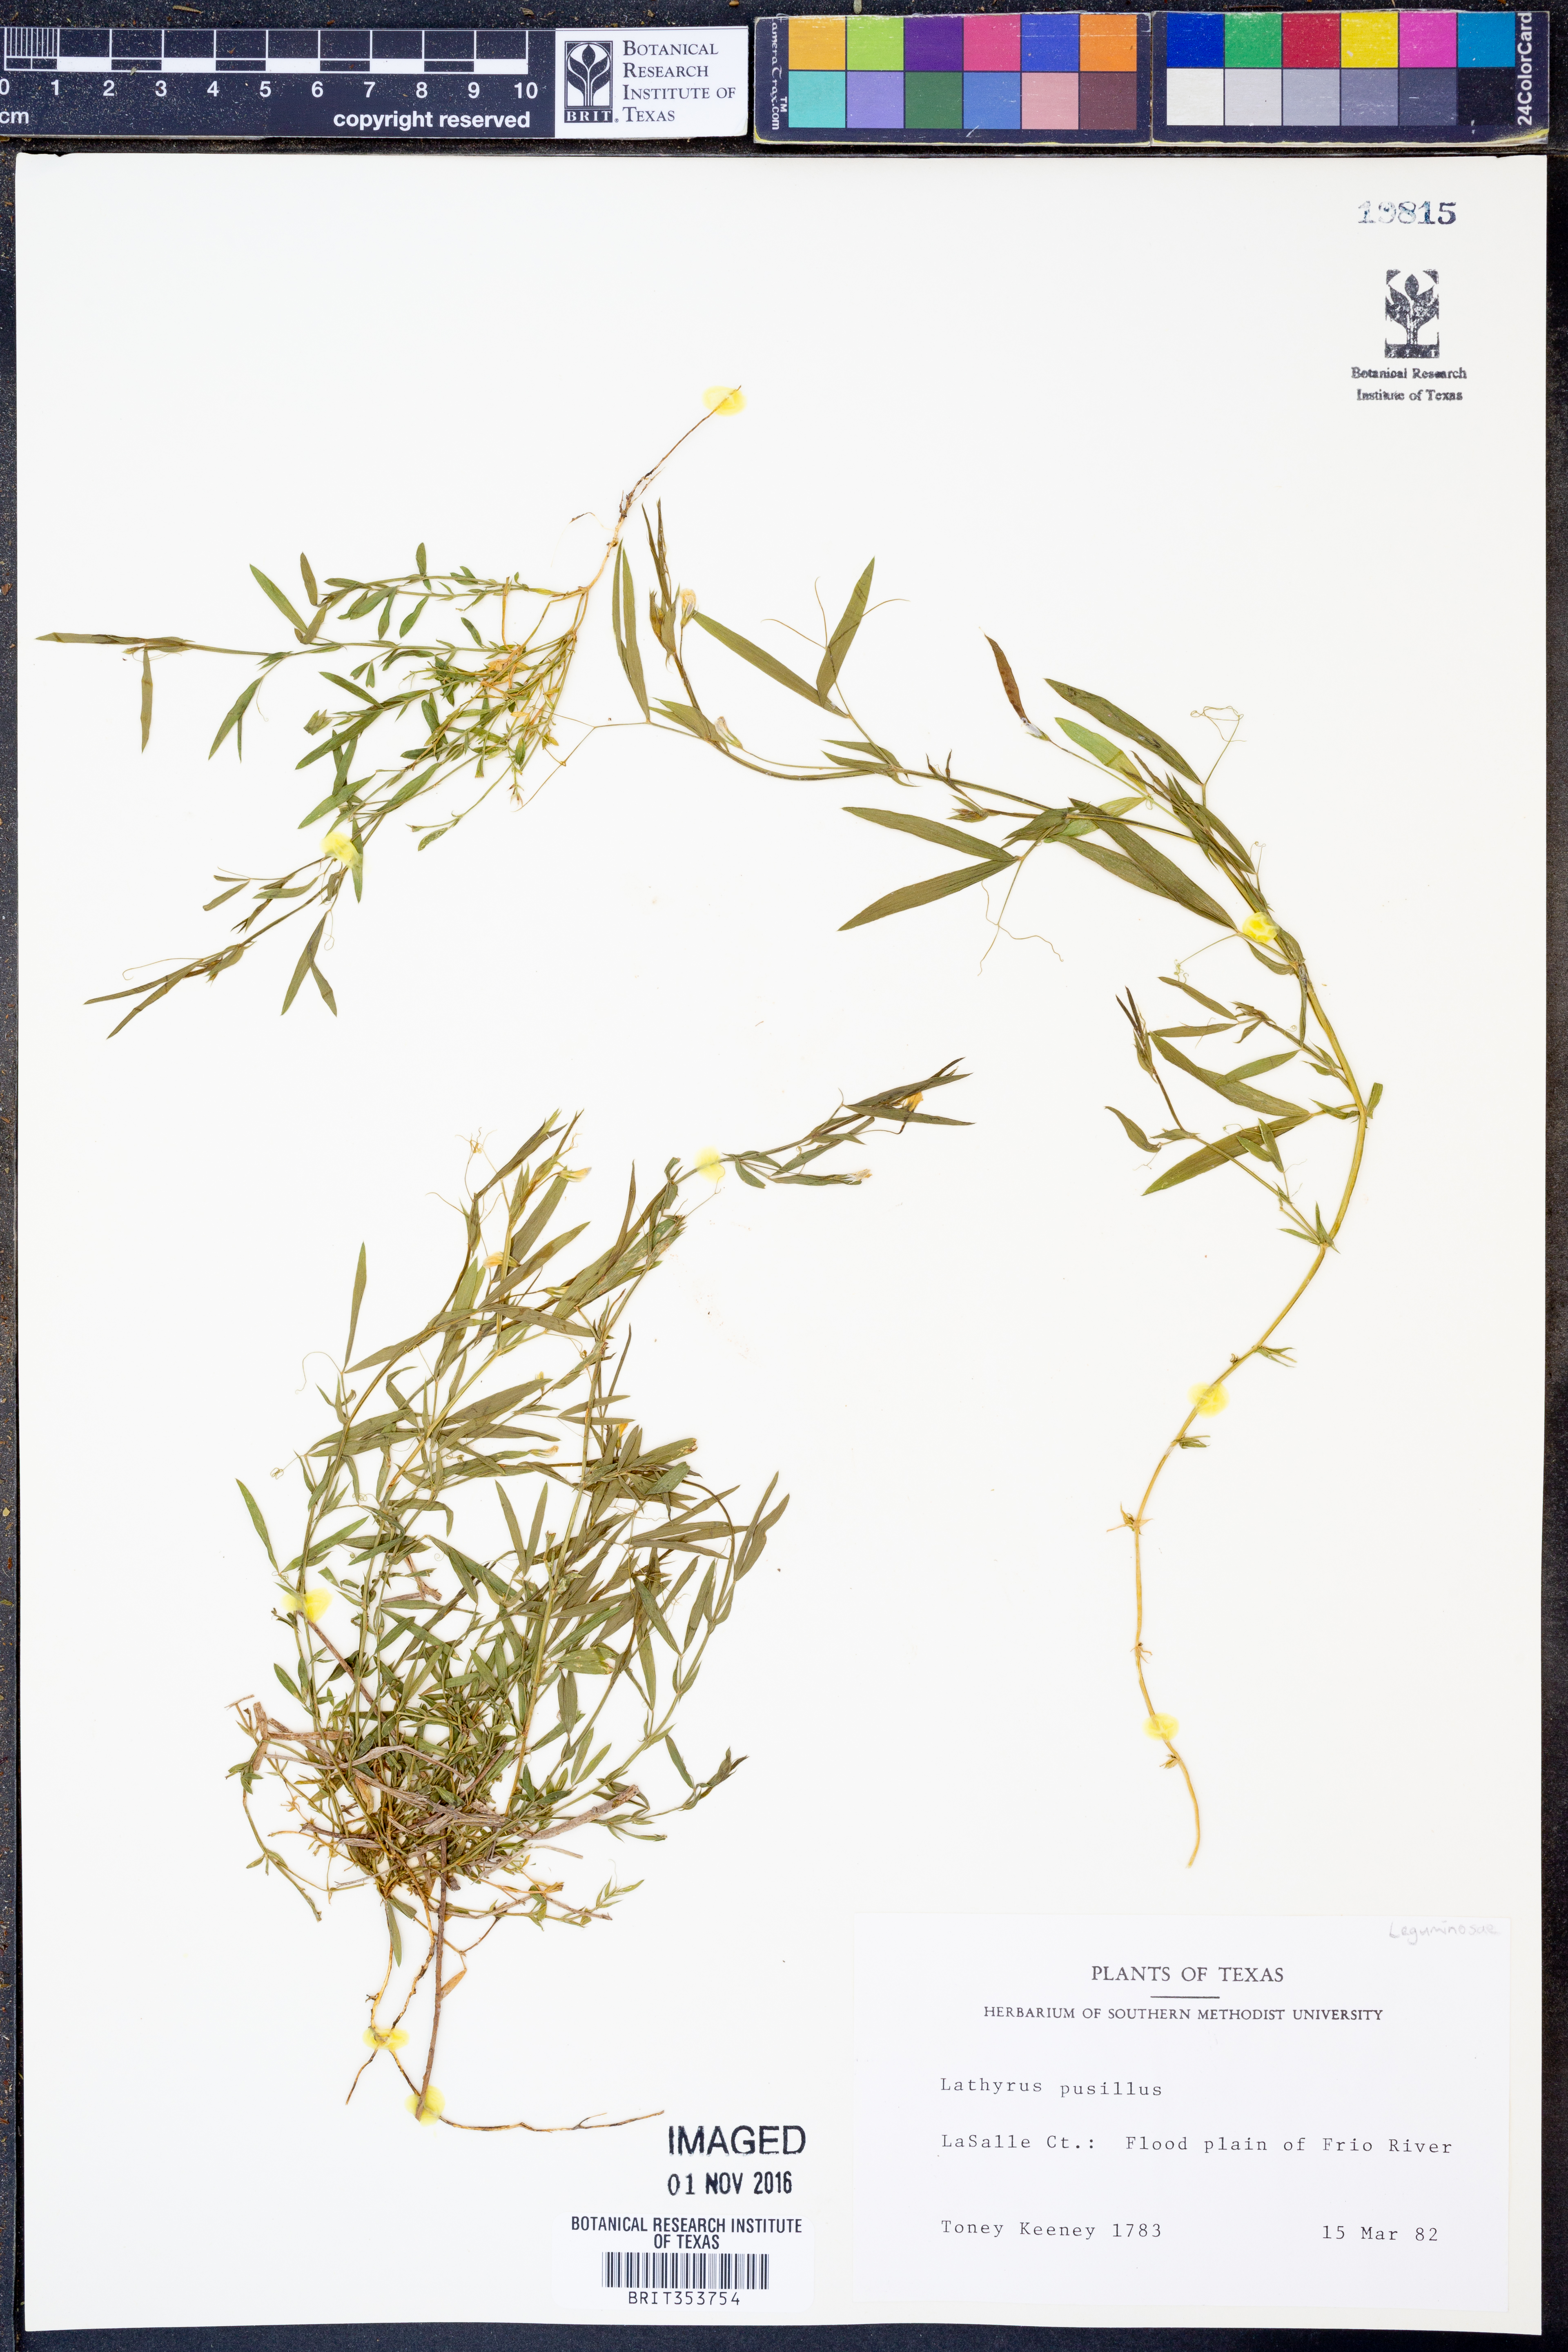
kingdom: Plantae
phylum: Tracheophyta
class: Magnoliopsida
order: Fabales
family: Fabaceae
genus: Lathyrus
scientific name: Lathyrus pusillus
